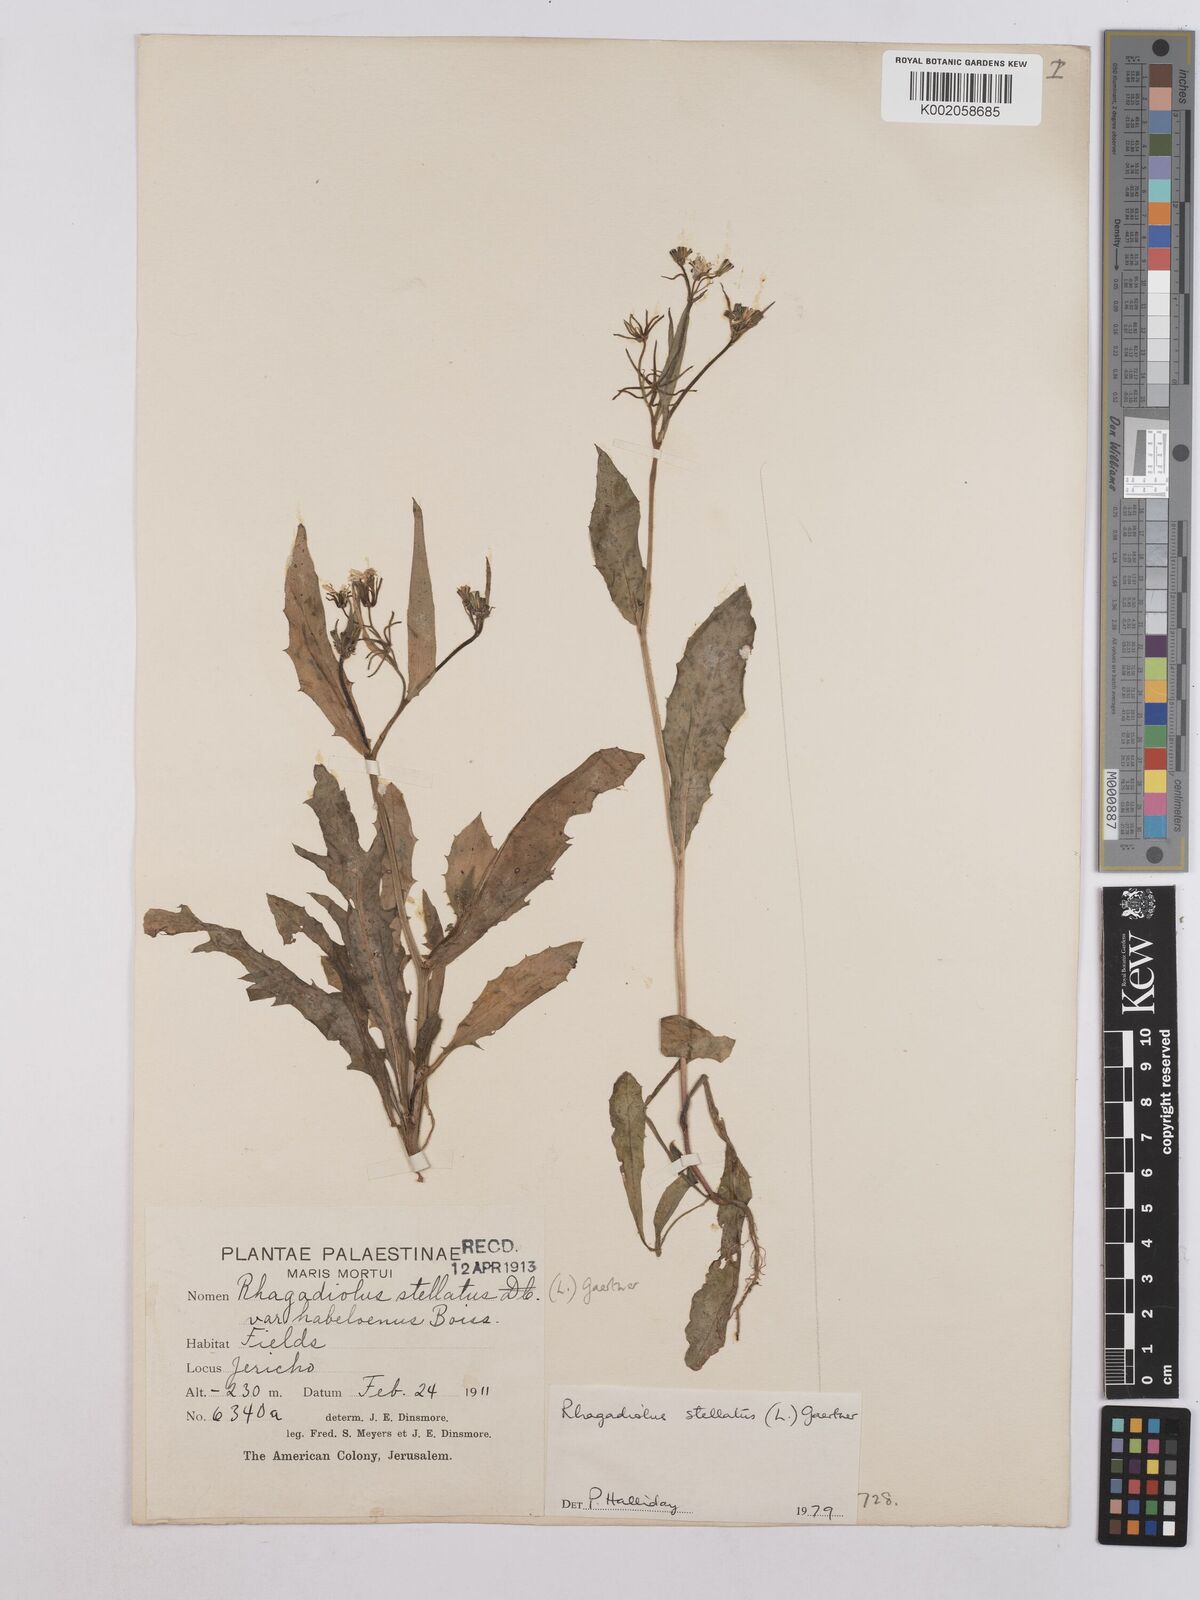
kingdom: Plantae
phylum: Tracheophyta
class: Magnoliopsida
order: Asterales
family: Asteraceae
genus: Rhagadiolus
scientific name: Rhagadiolus stellatus
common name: Star hawkbit
